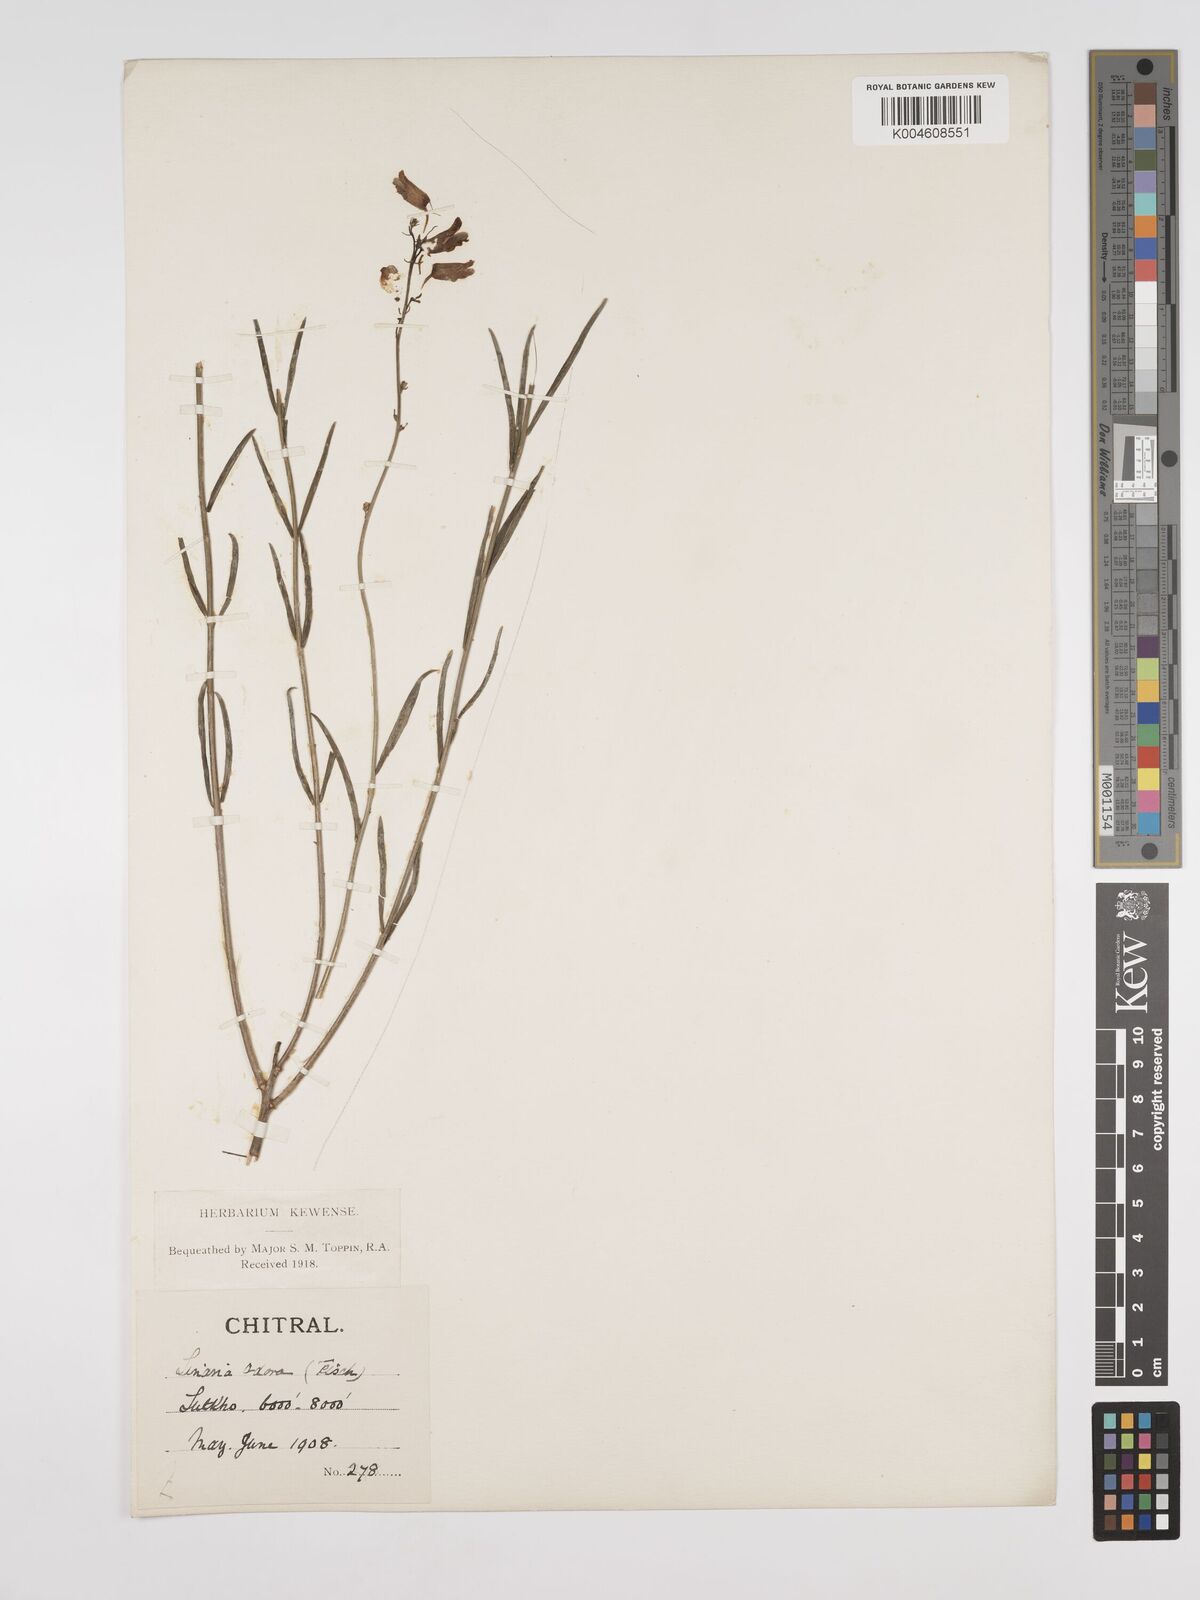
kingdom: Plantae
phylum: Tracheophyta
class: Magnoliopsida
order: Lamiales
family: Plantaginaceae
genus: Kickxia
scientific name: Kickxia
